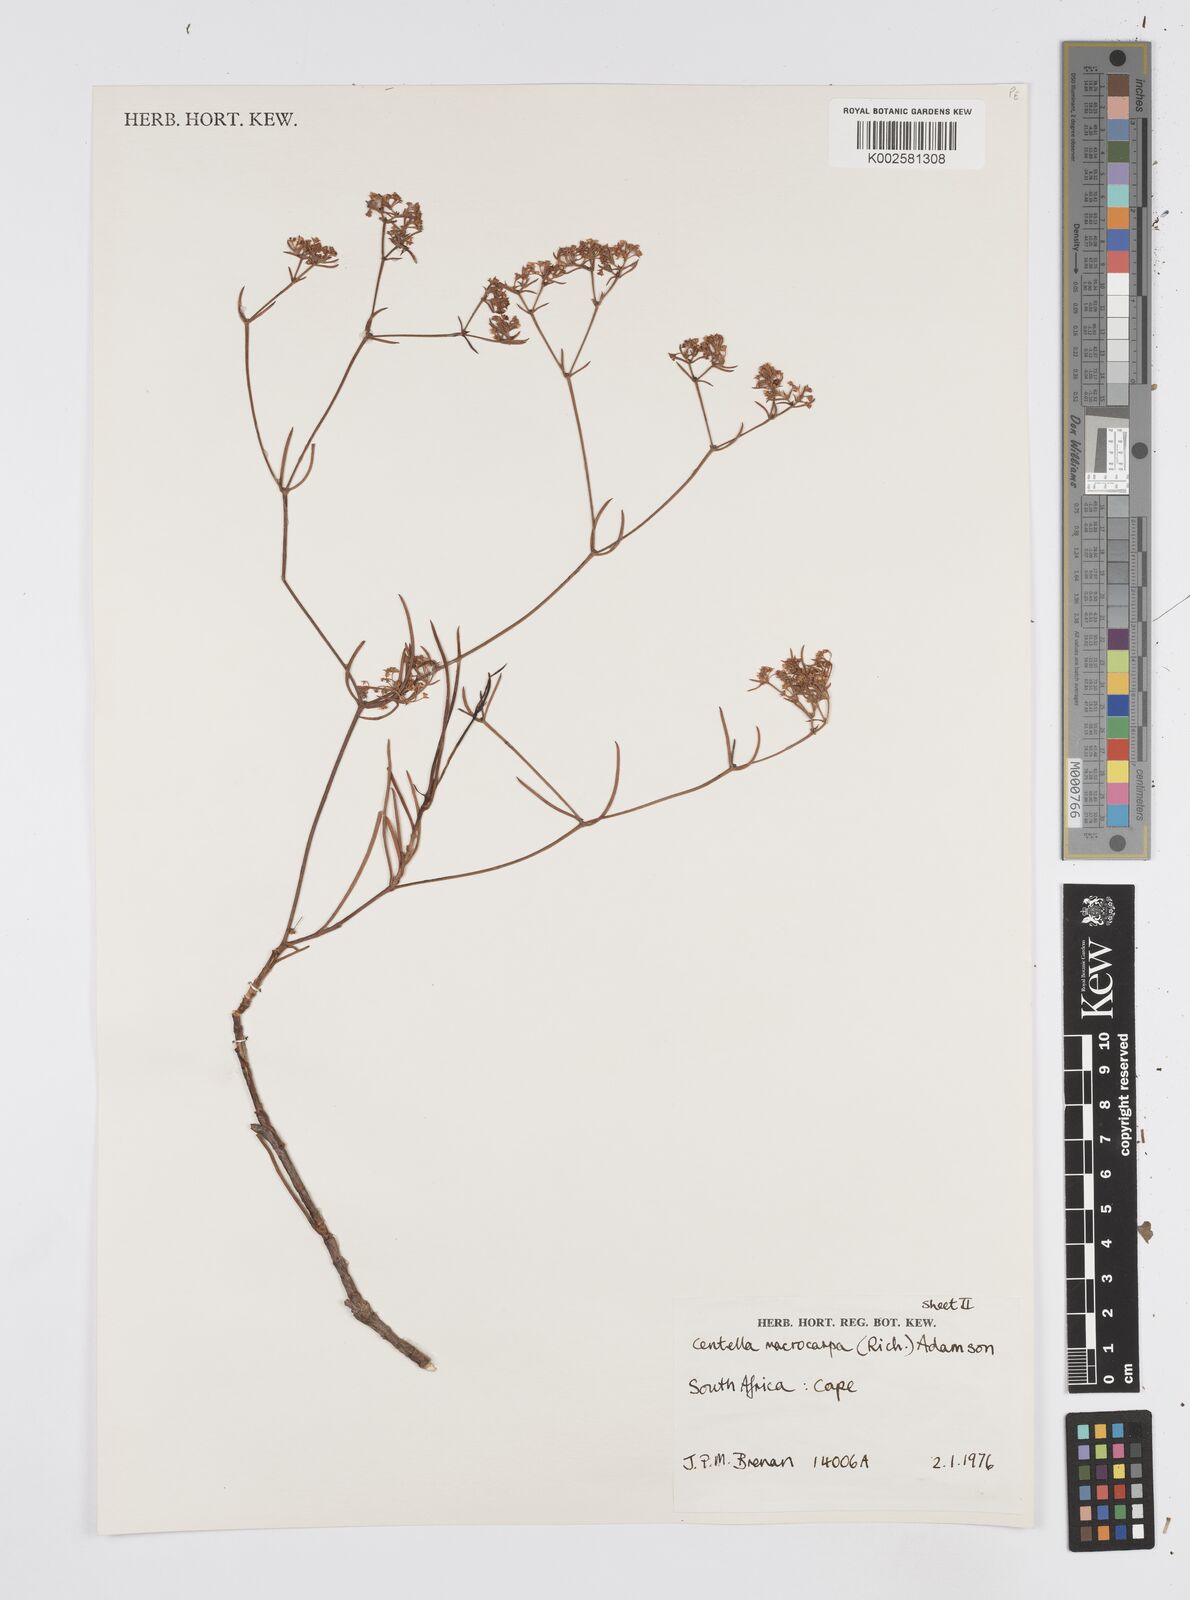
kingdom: Plantae
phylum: Tracheophyta
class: Magnoliopsida
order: Apiales
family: Apiaceae
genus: Centella
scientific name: Centella macrocarpa
